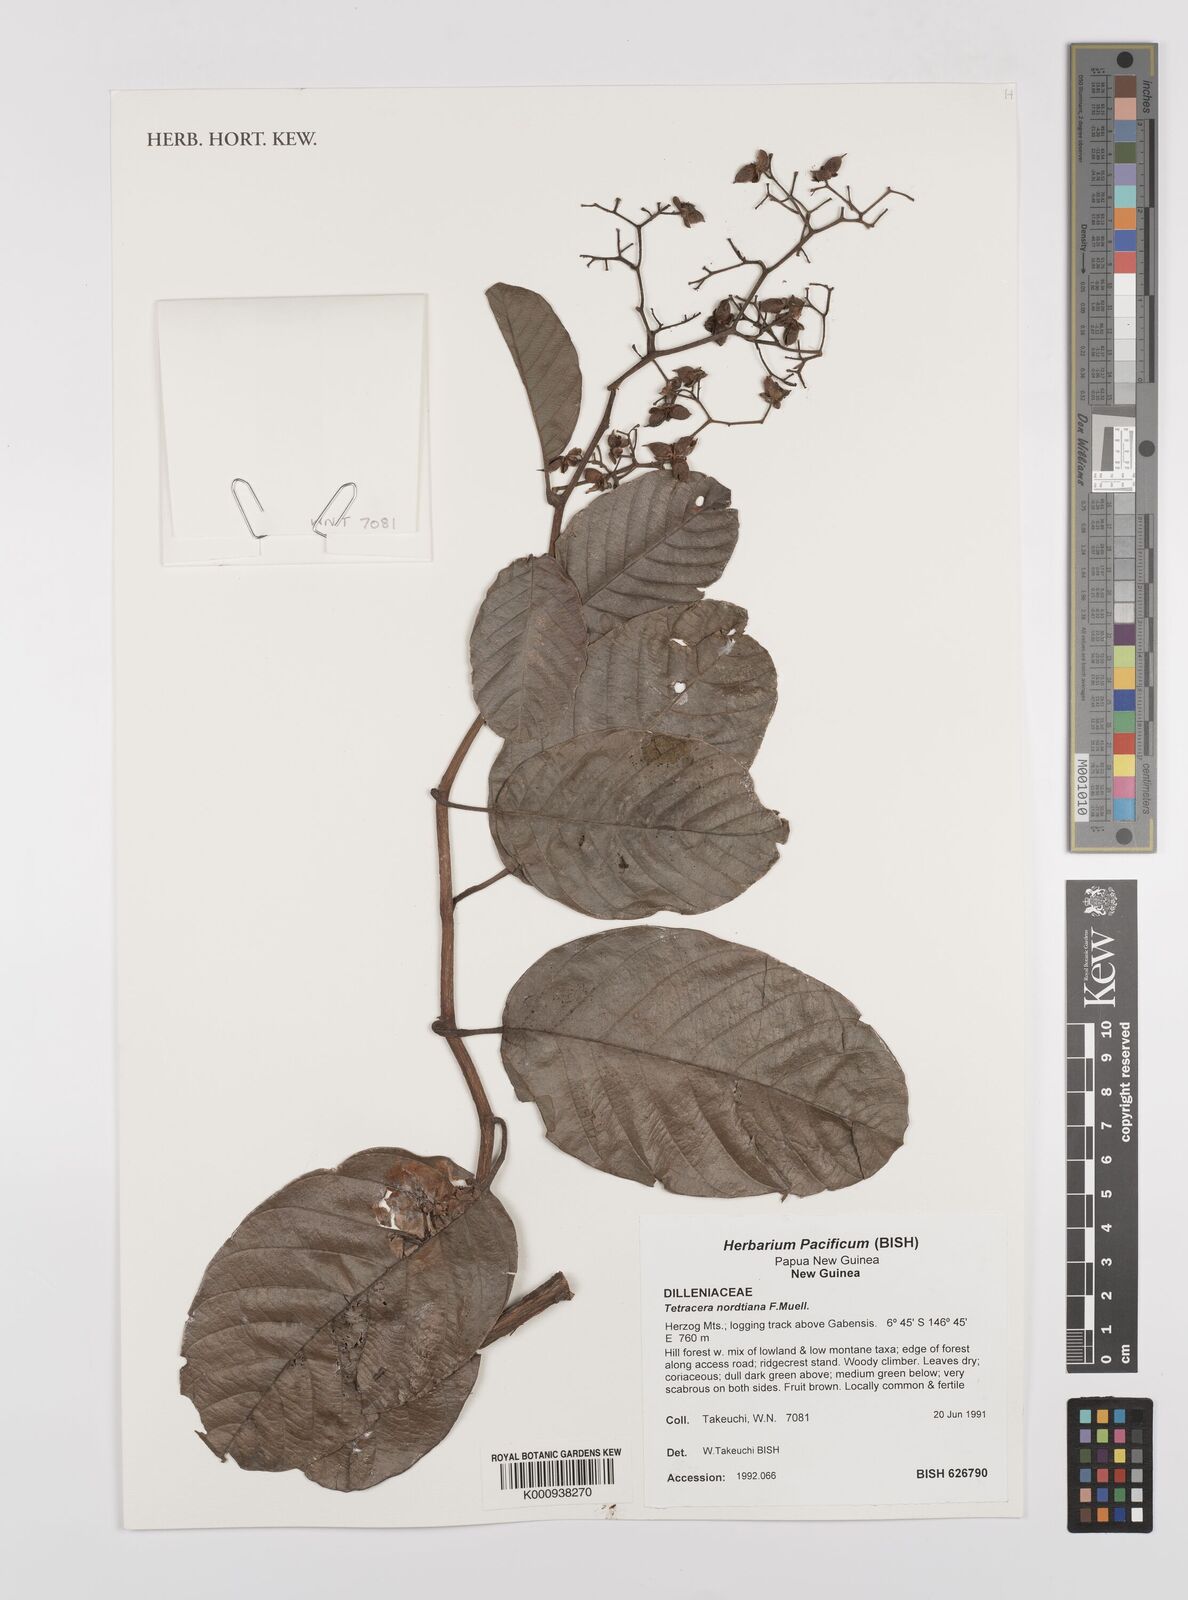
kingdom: Plantae
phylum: Tracheophyta
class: Magnoliopsida
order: Dilleniales
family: Dilleniaceae
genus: Tetracera
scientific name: Tetracera nordtiana
